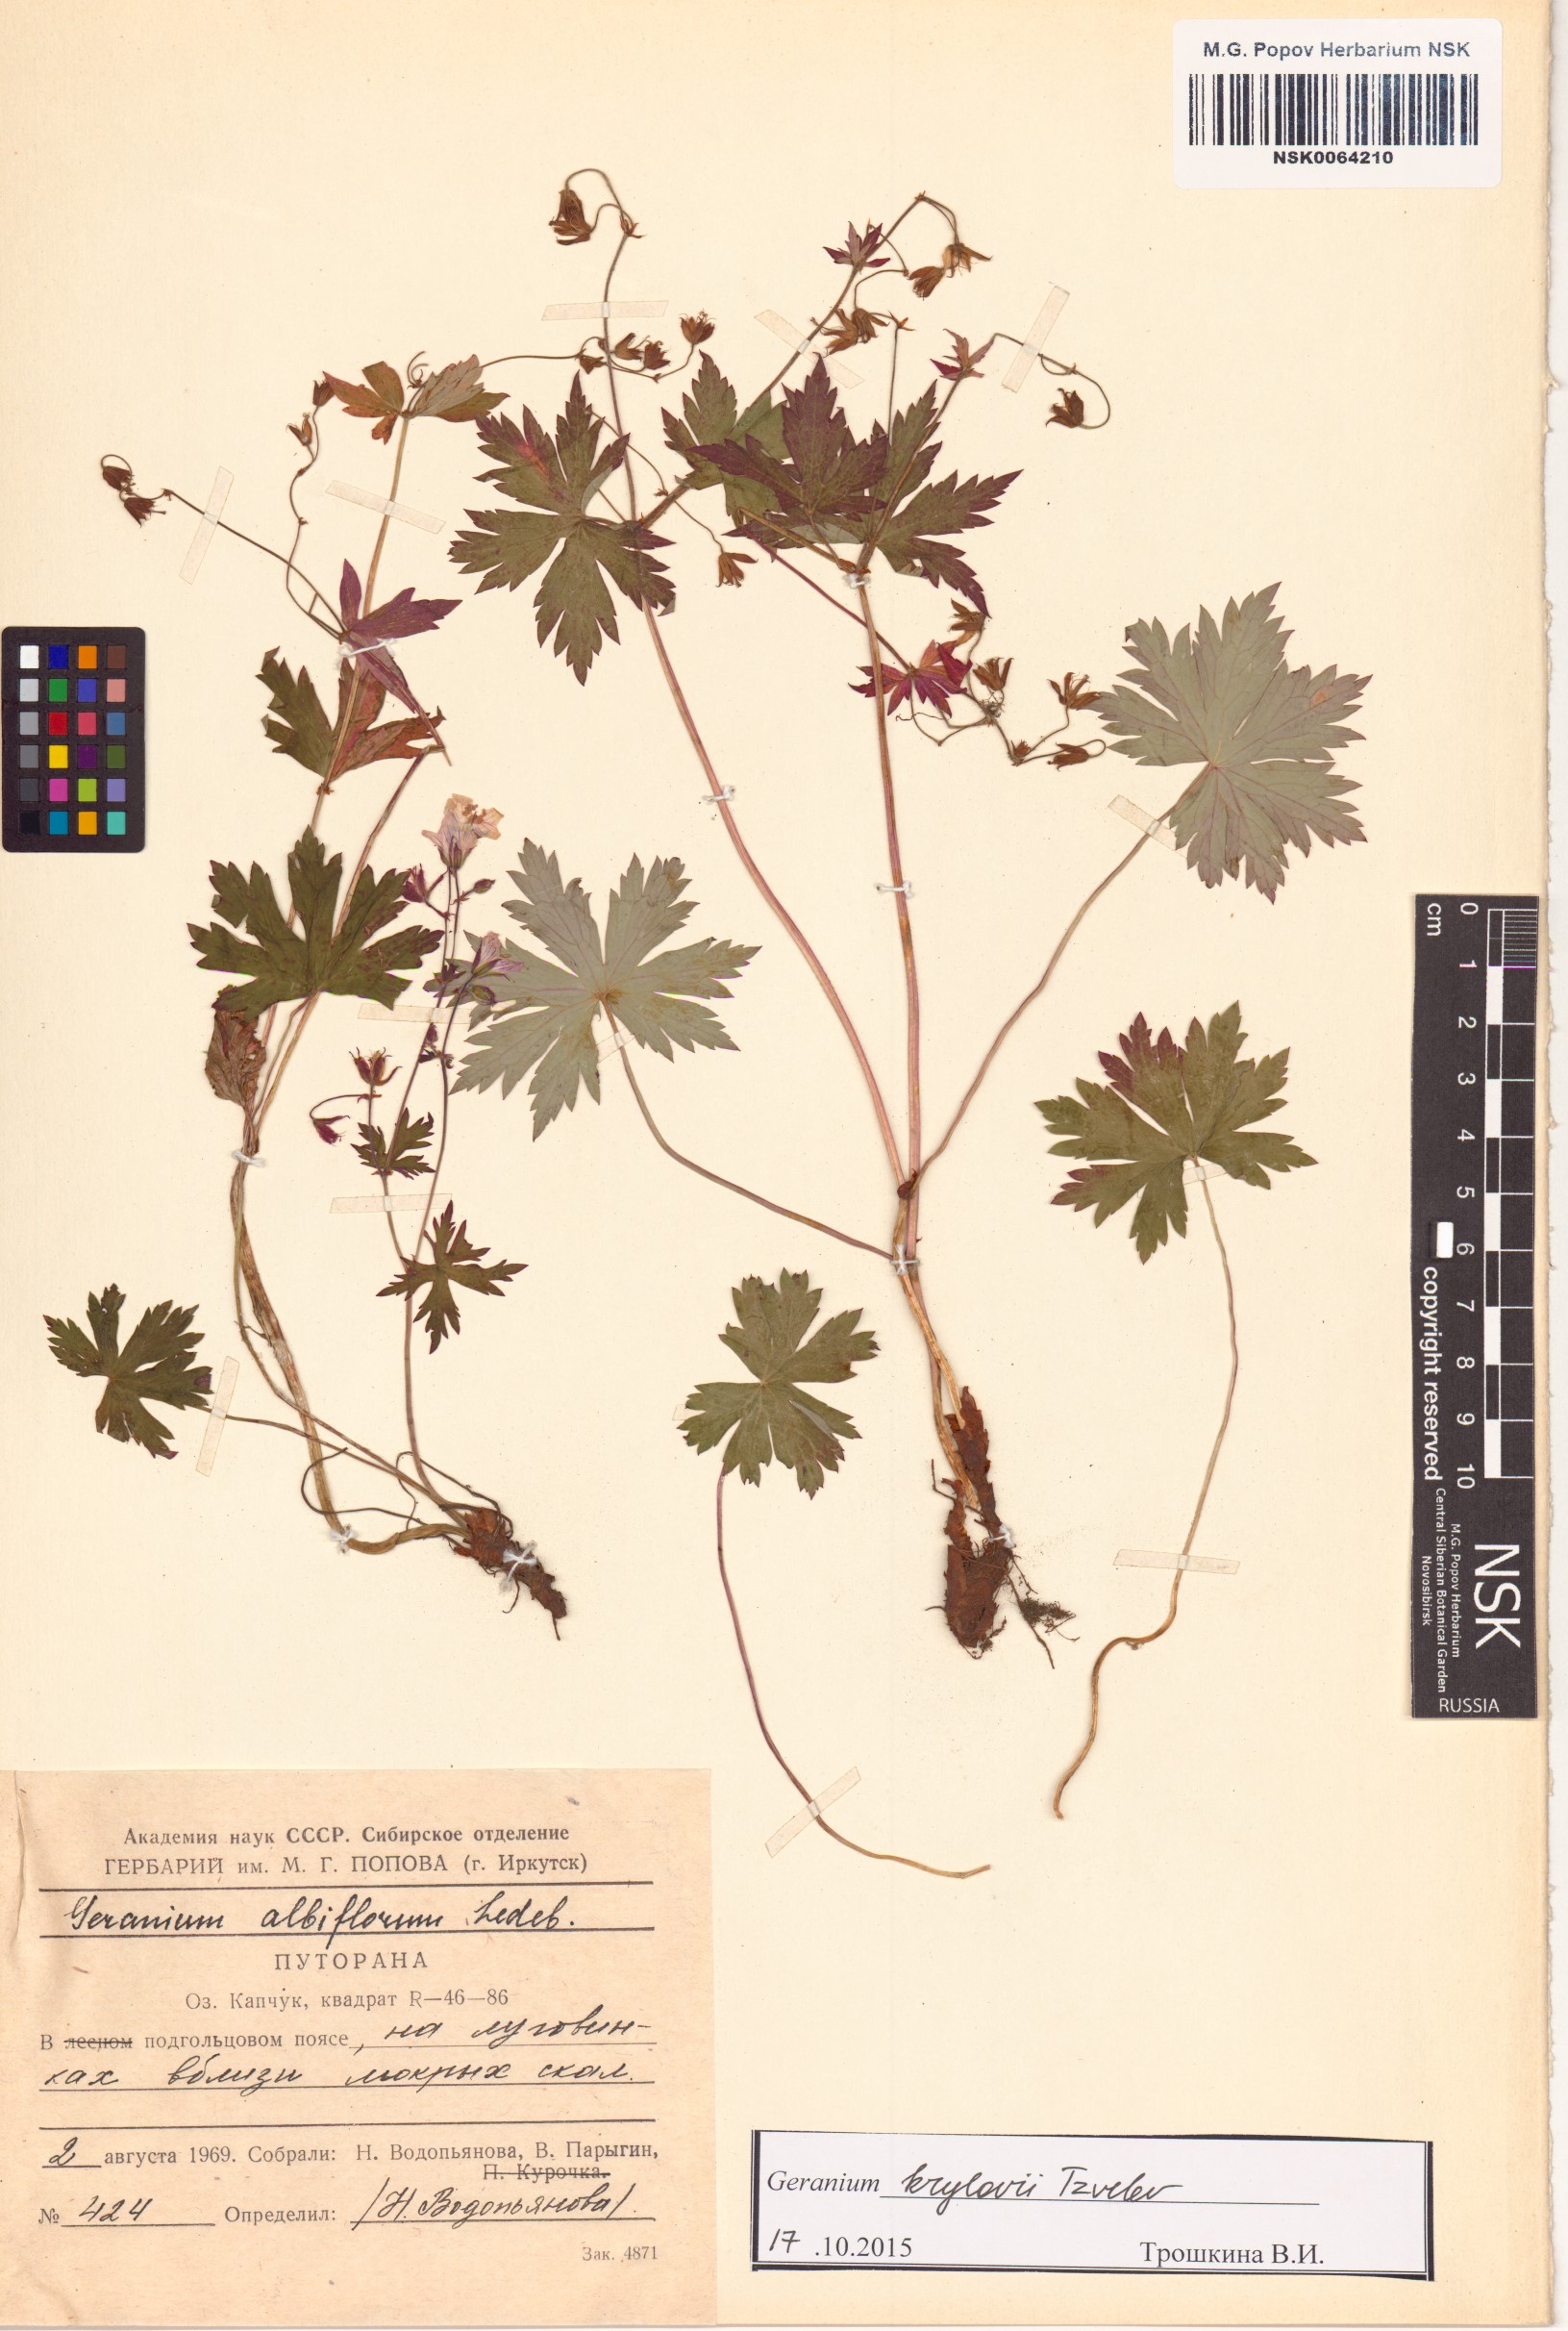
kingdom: Plantae
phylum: Tracheophyta
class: Magnoliopsida
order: Geraniales
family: Geraniaceae
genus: Geranium
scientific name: Geranium sylvaticum
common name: Wood crane's-bill
